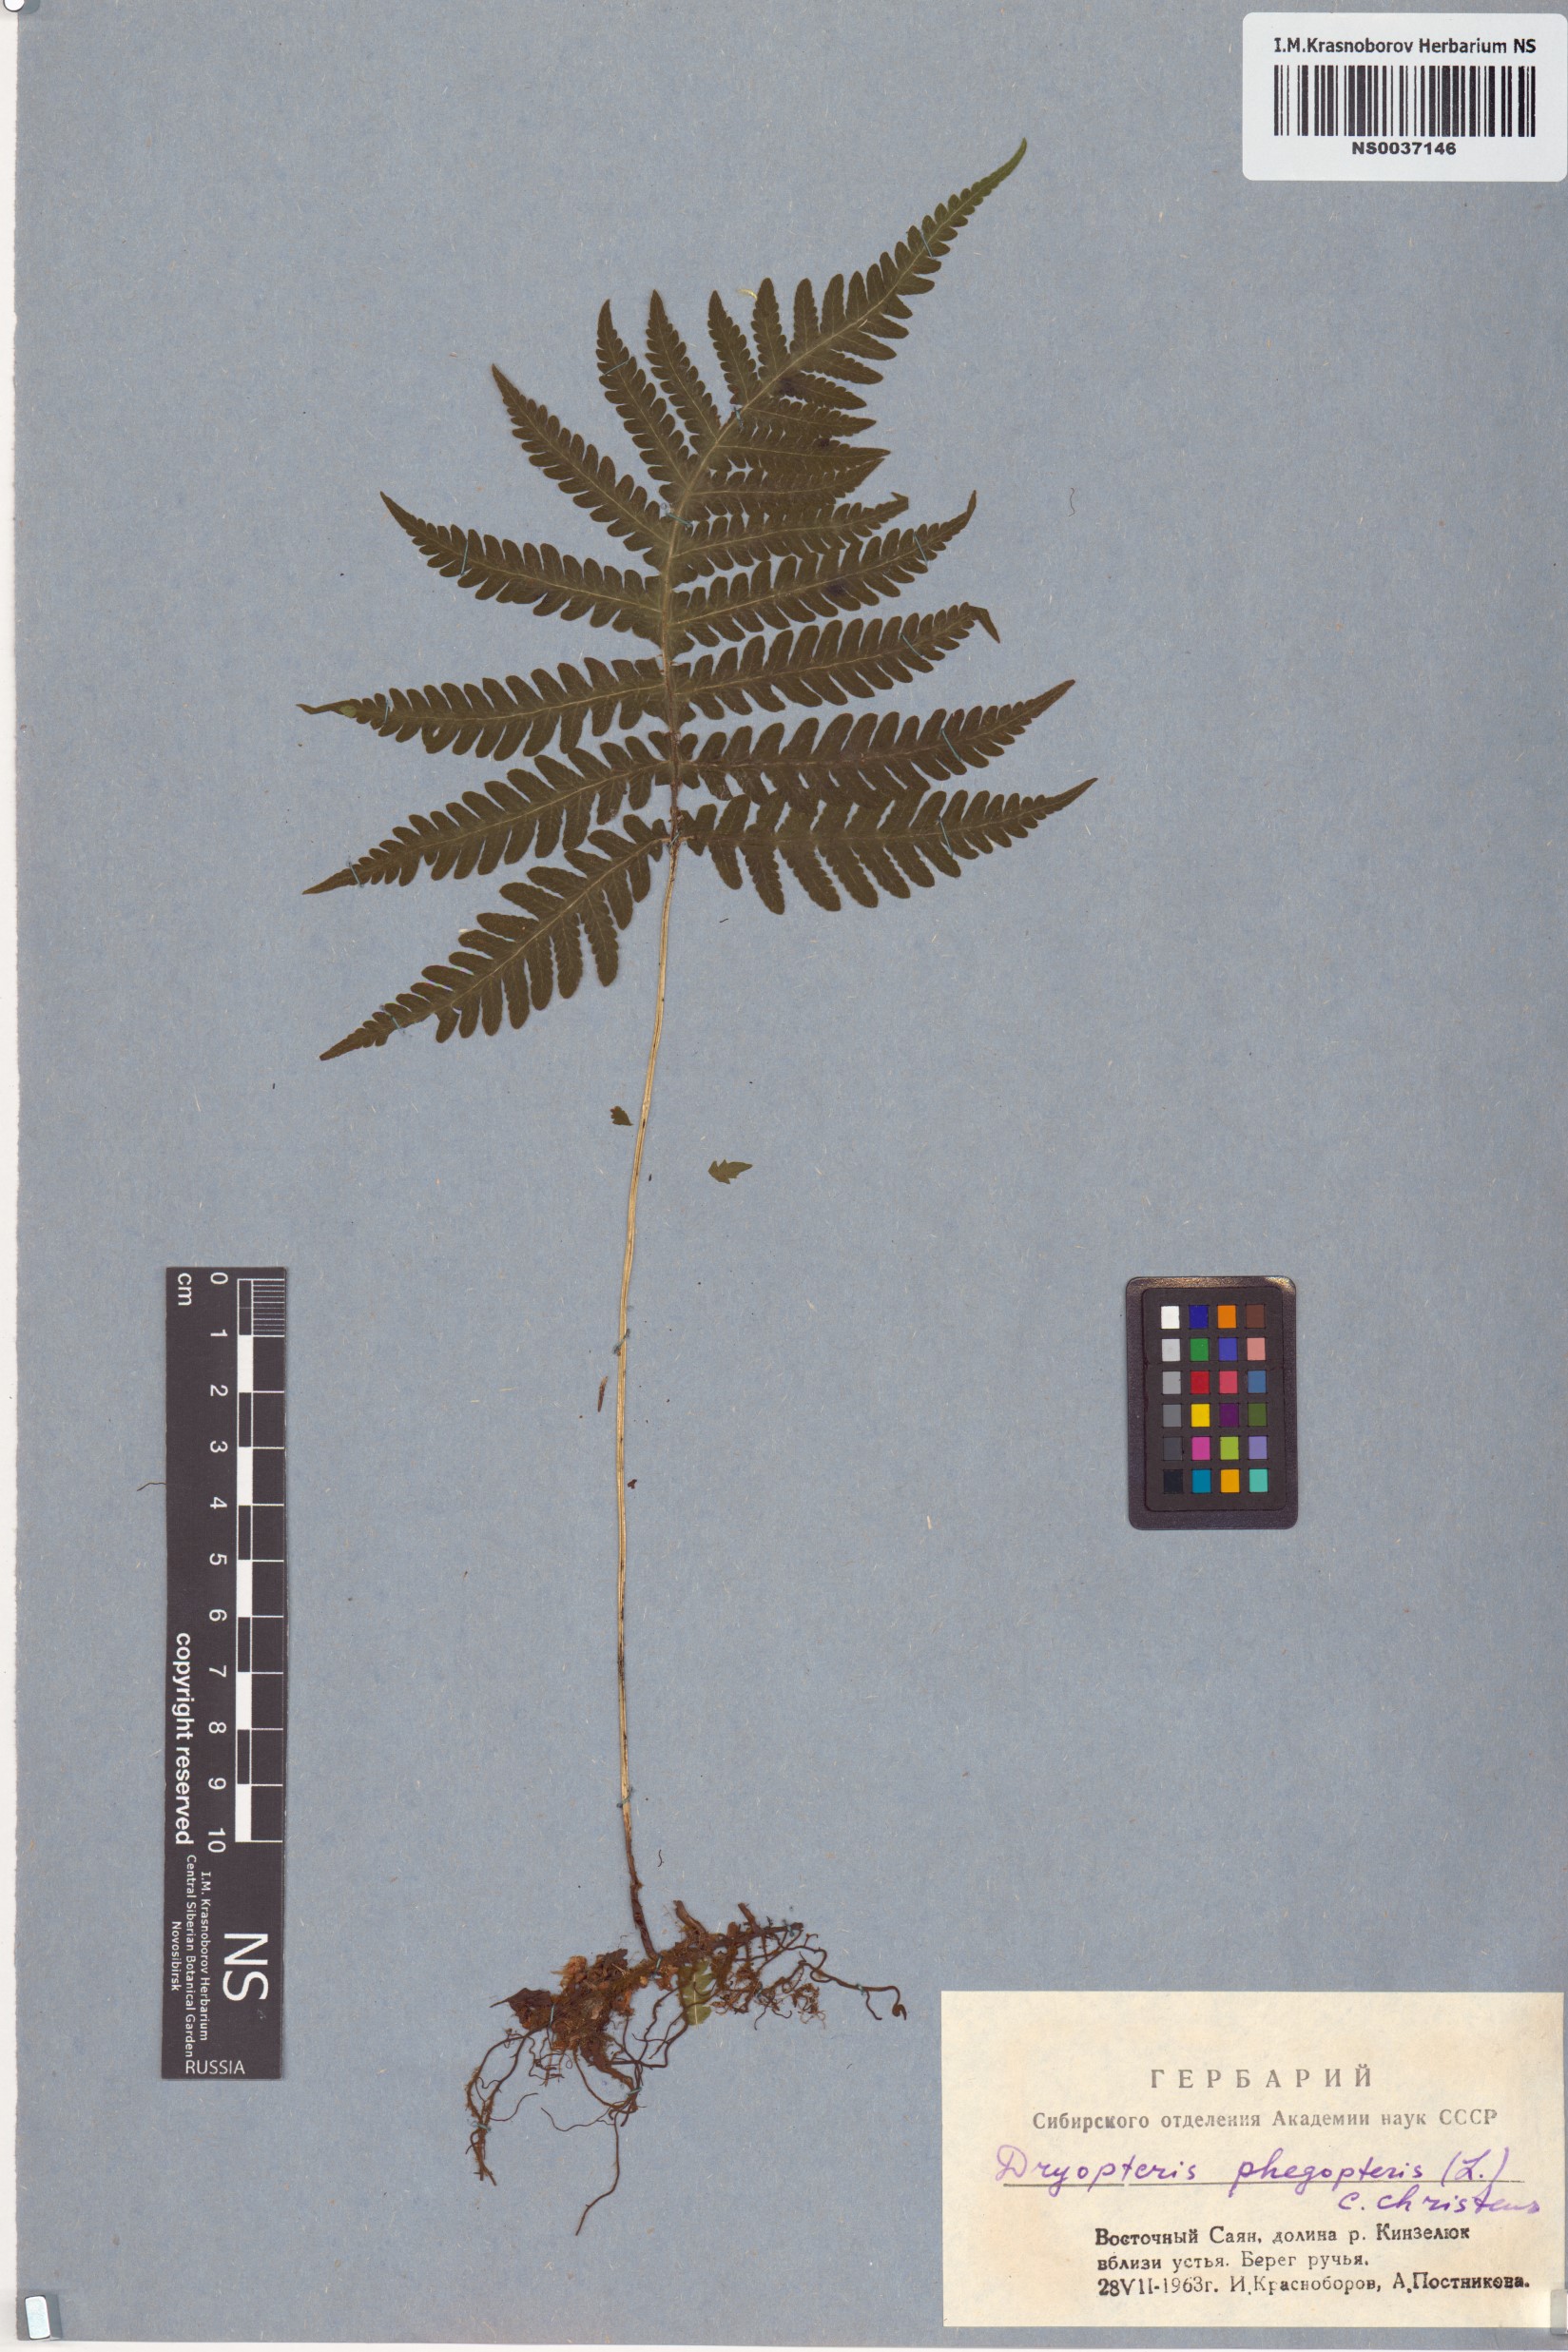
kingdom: Plantae
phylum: Tracheophyta
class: Polypodiopsida
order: Polypodiales
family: Thelypteridaceae
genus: Phegopteris
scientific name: Phegopteris connectilis
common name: Beech fern
